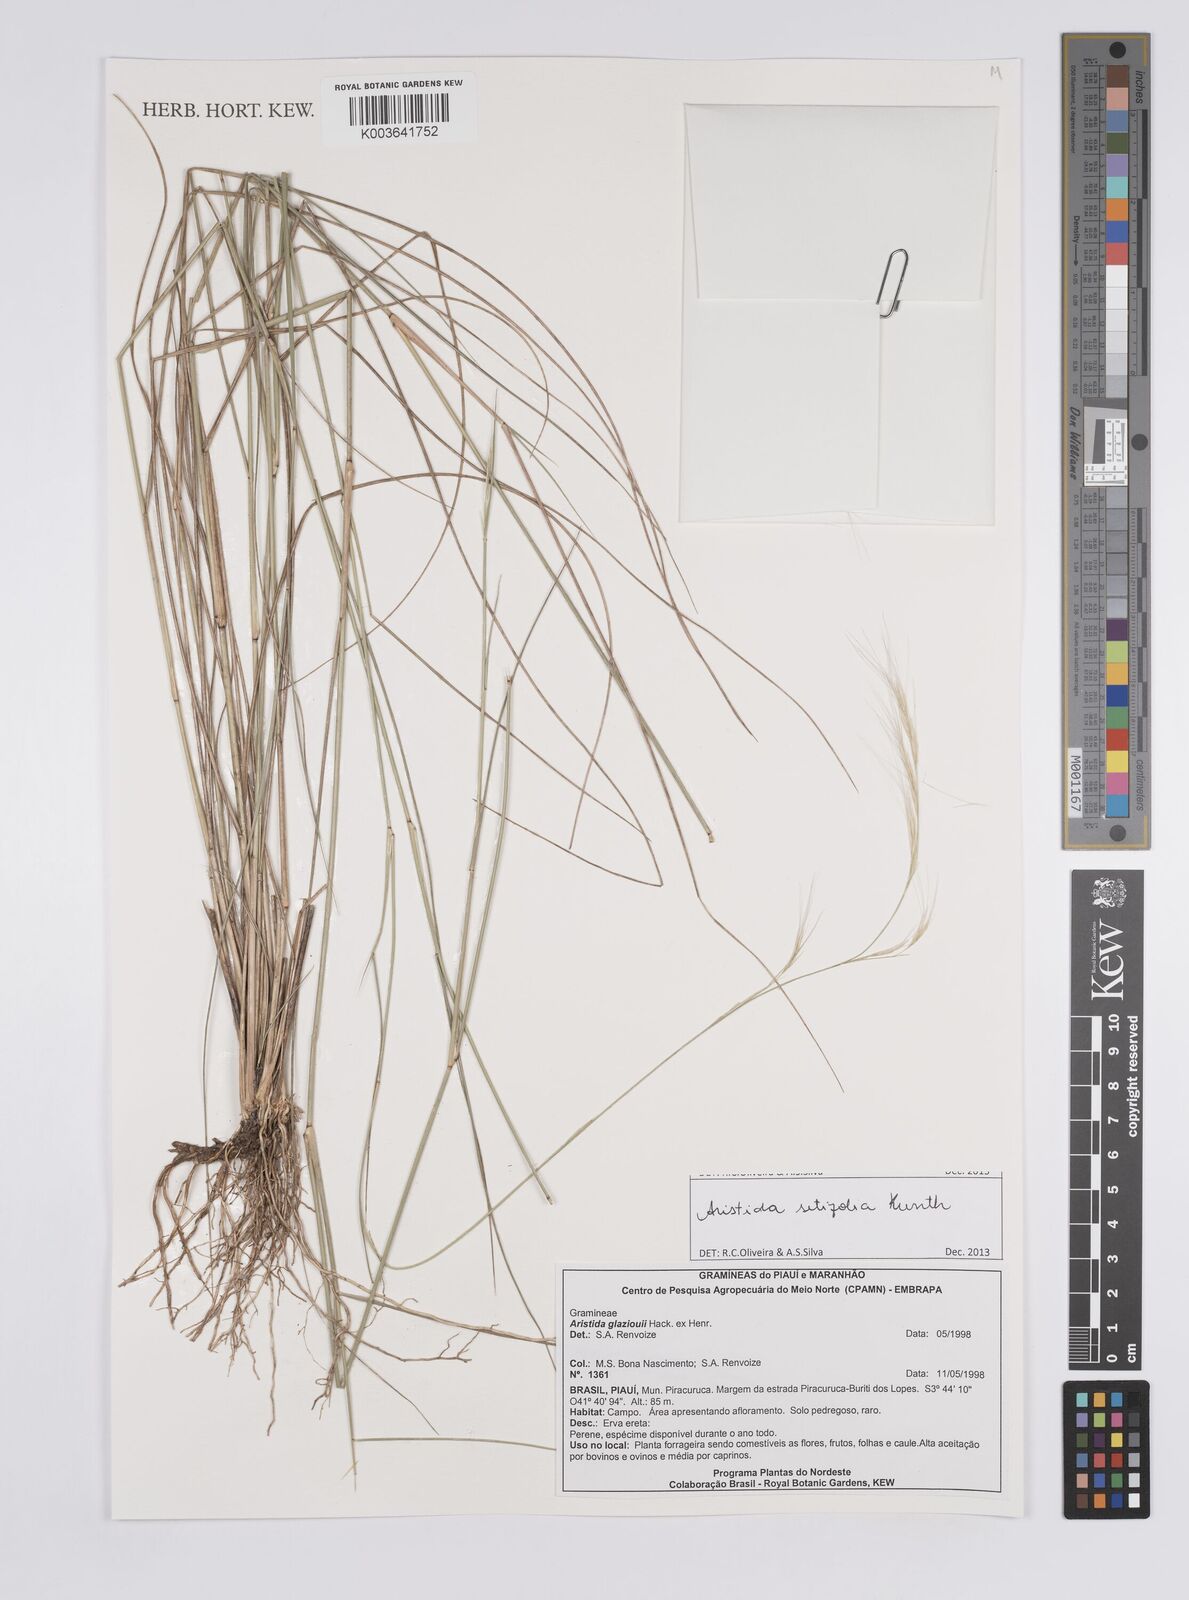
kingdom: Plantae
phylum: Tracheophyta
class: Liliopsida
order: Poales
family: Poaceae
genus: Aristida
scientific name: Aristida setifolia
